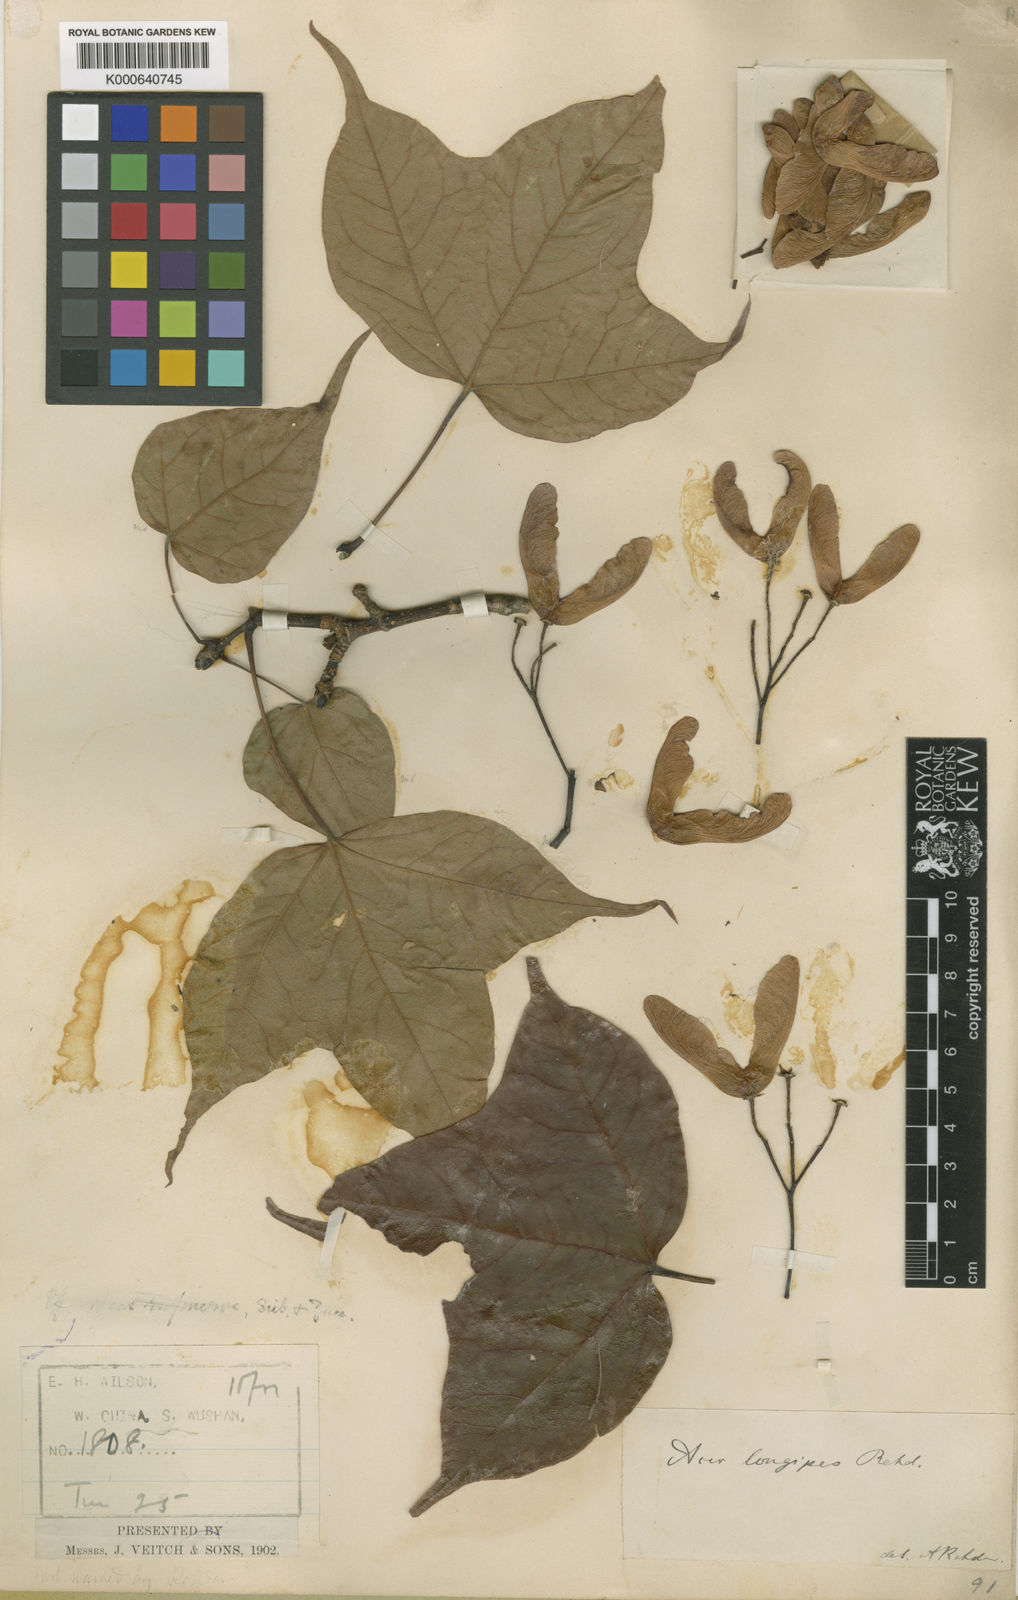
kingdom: Plantae
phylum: Tracheophyta
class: Magnoliopsida
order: Sapindales
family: Sapindaceae
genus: Acer
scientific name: Acer longipes
